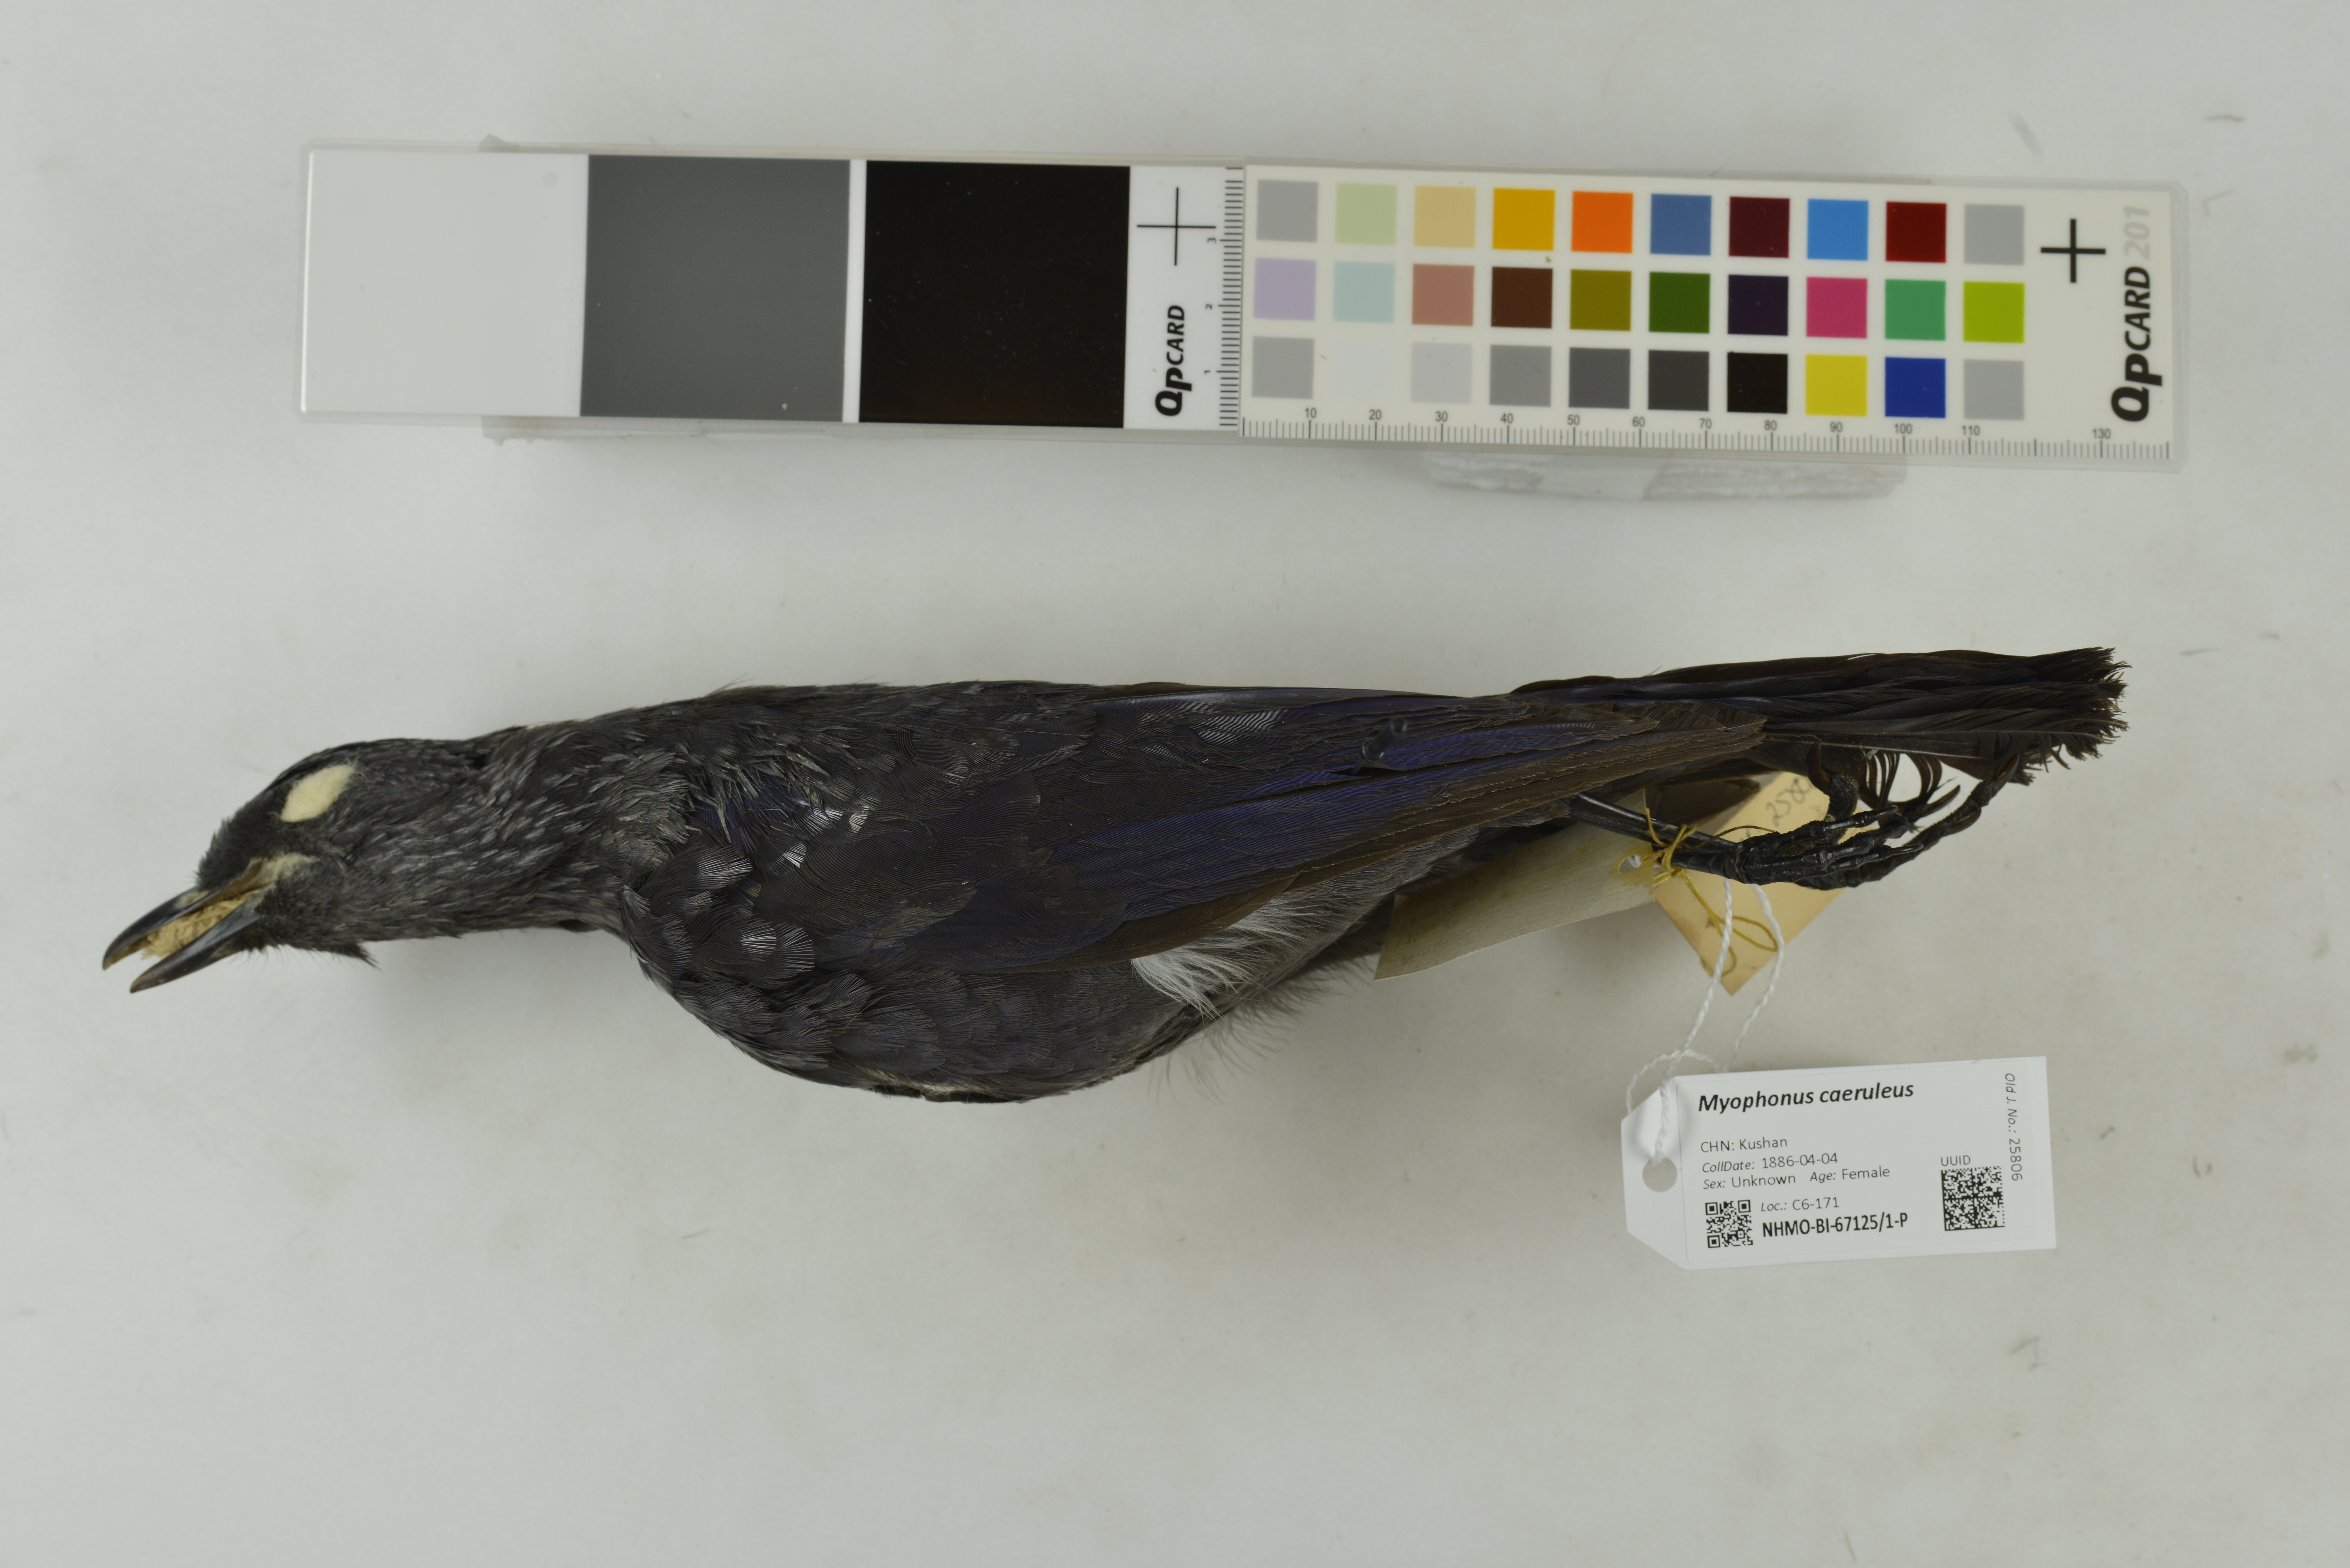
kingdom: Animalia
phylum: Chordata
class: Aves
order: Passeriformes
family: Muscicapidae
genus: Myophonus
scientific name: Myophonus caeruleus
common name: Blue whistling-thrush
